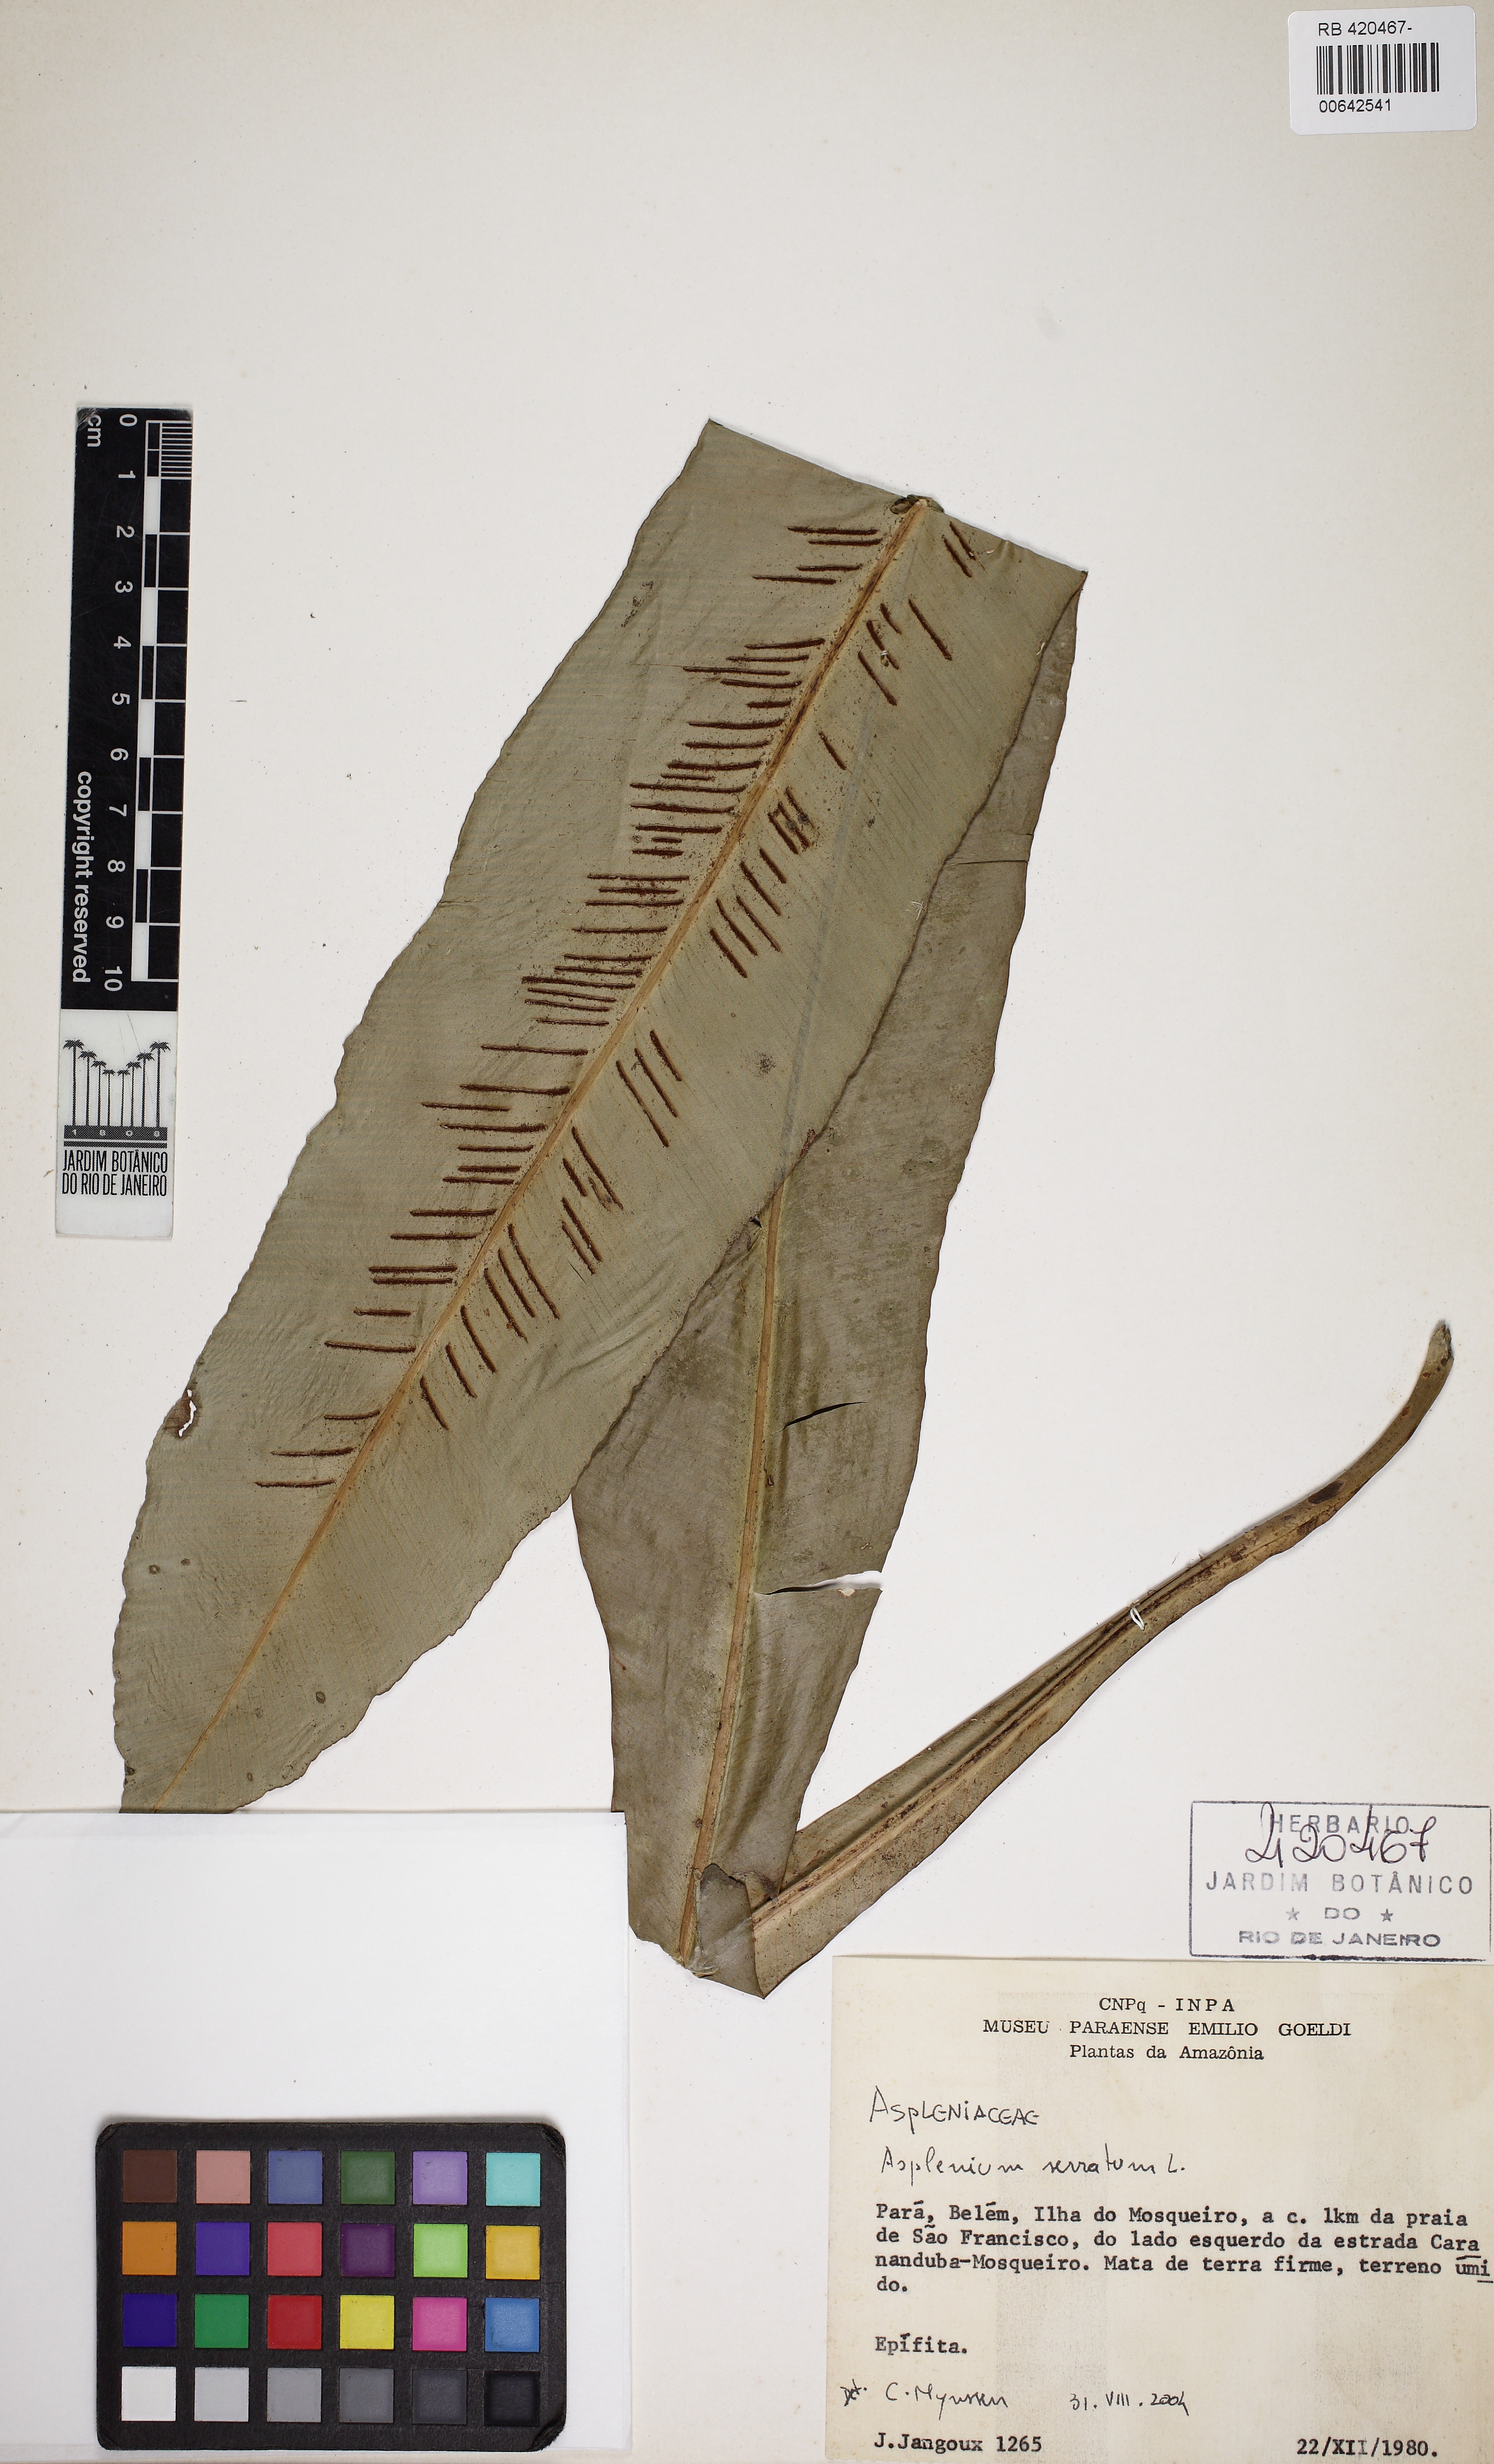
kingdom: Plantae
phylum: Tracheophyta
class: Polypodiopsida
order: Polypodiales
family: Aspleniaceae
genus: Asplenium
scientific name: Asplenium serratum
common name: Wild birdnest fern
